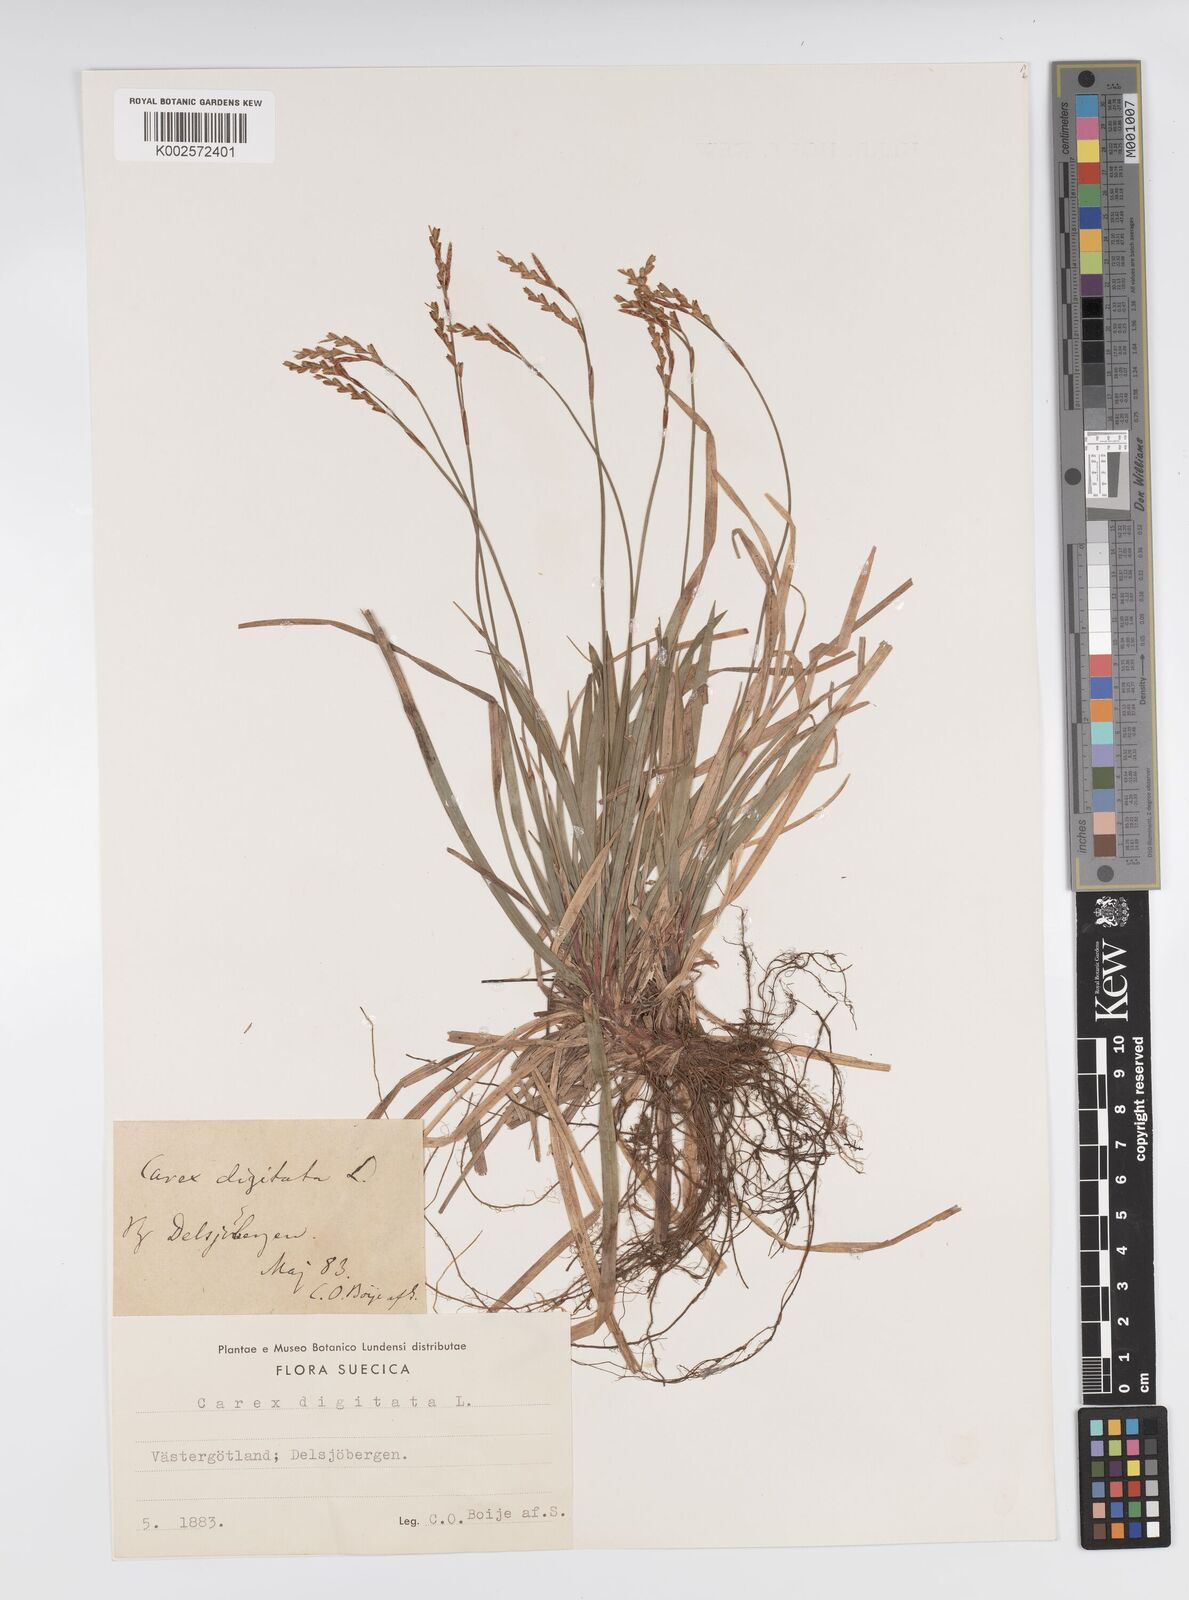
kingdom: Plantae
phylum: Tracheophyta
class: Liliopsida
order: Poales
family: Cyperaceae
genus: Carex
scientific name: Carex digitata
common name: Fingered sedge
